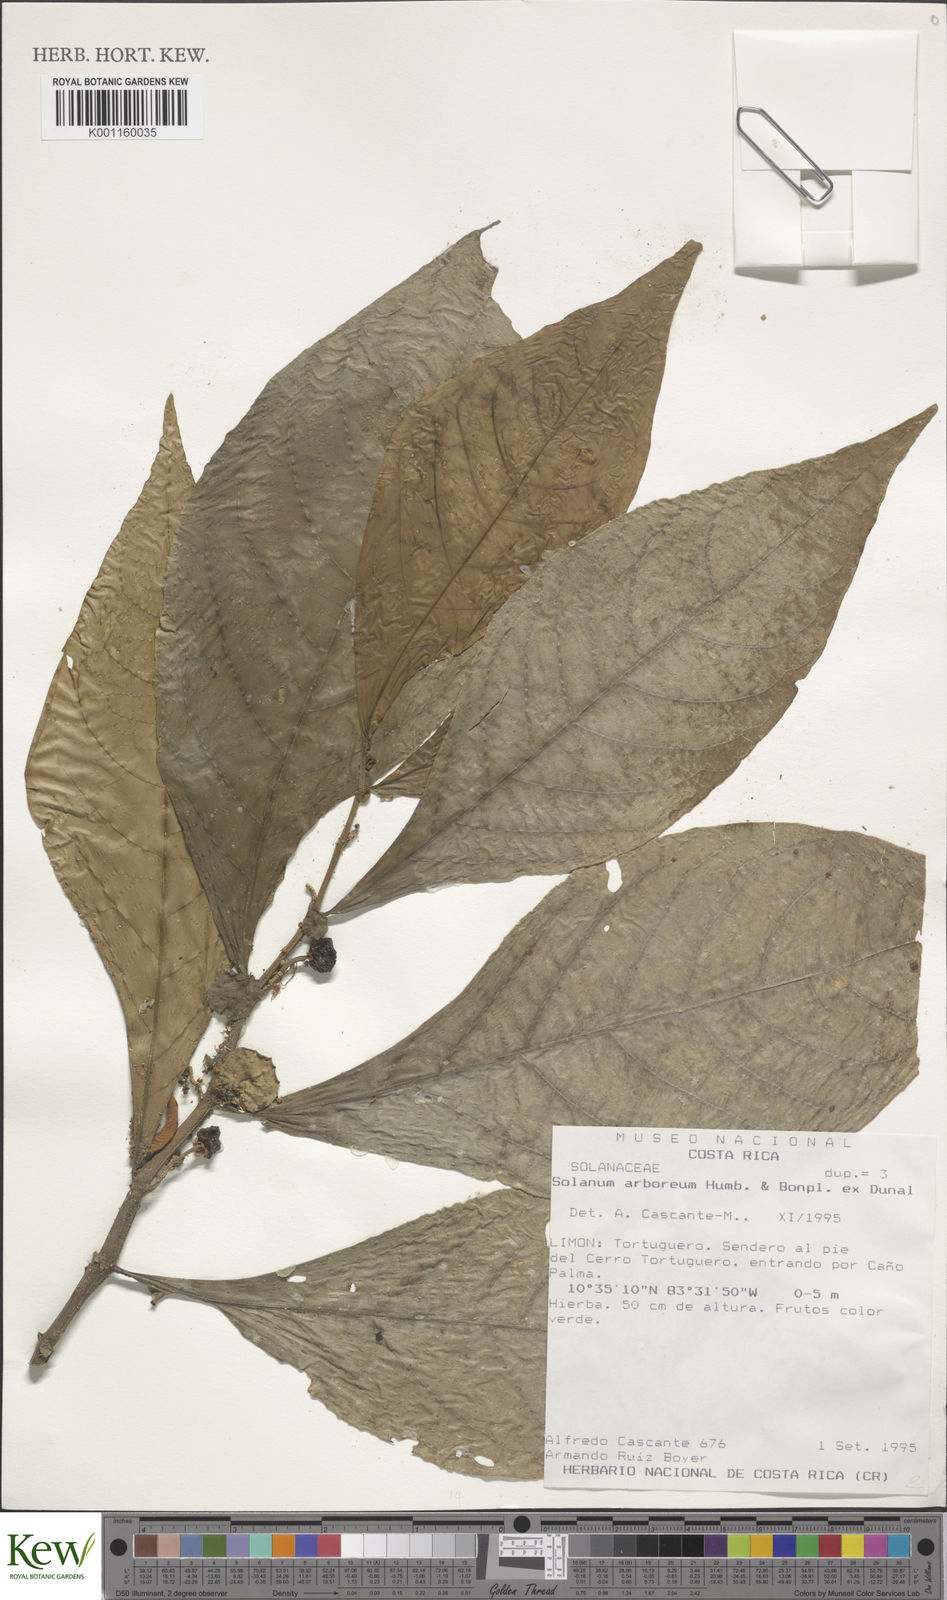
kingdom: Plantae
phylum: Tracheophyta
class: Magnoliopsida
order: Solanales
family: Solanaceae
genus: Solanum
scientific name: Solanum arboreum
